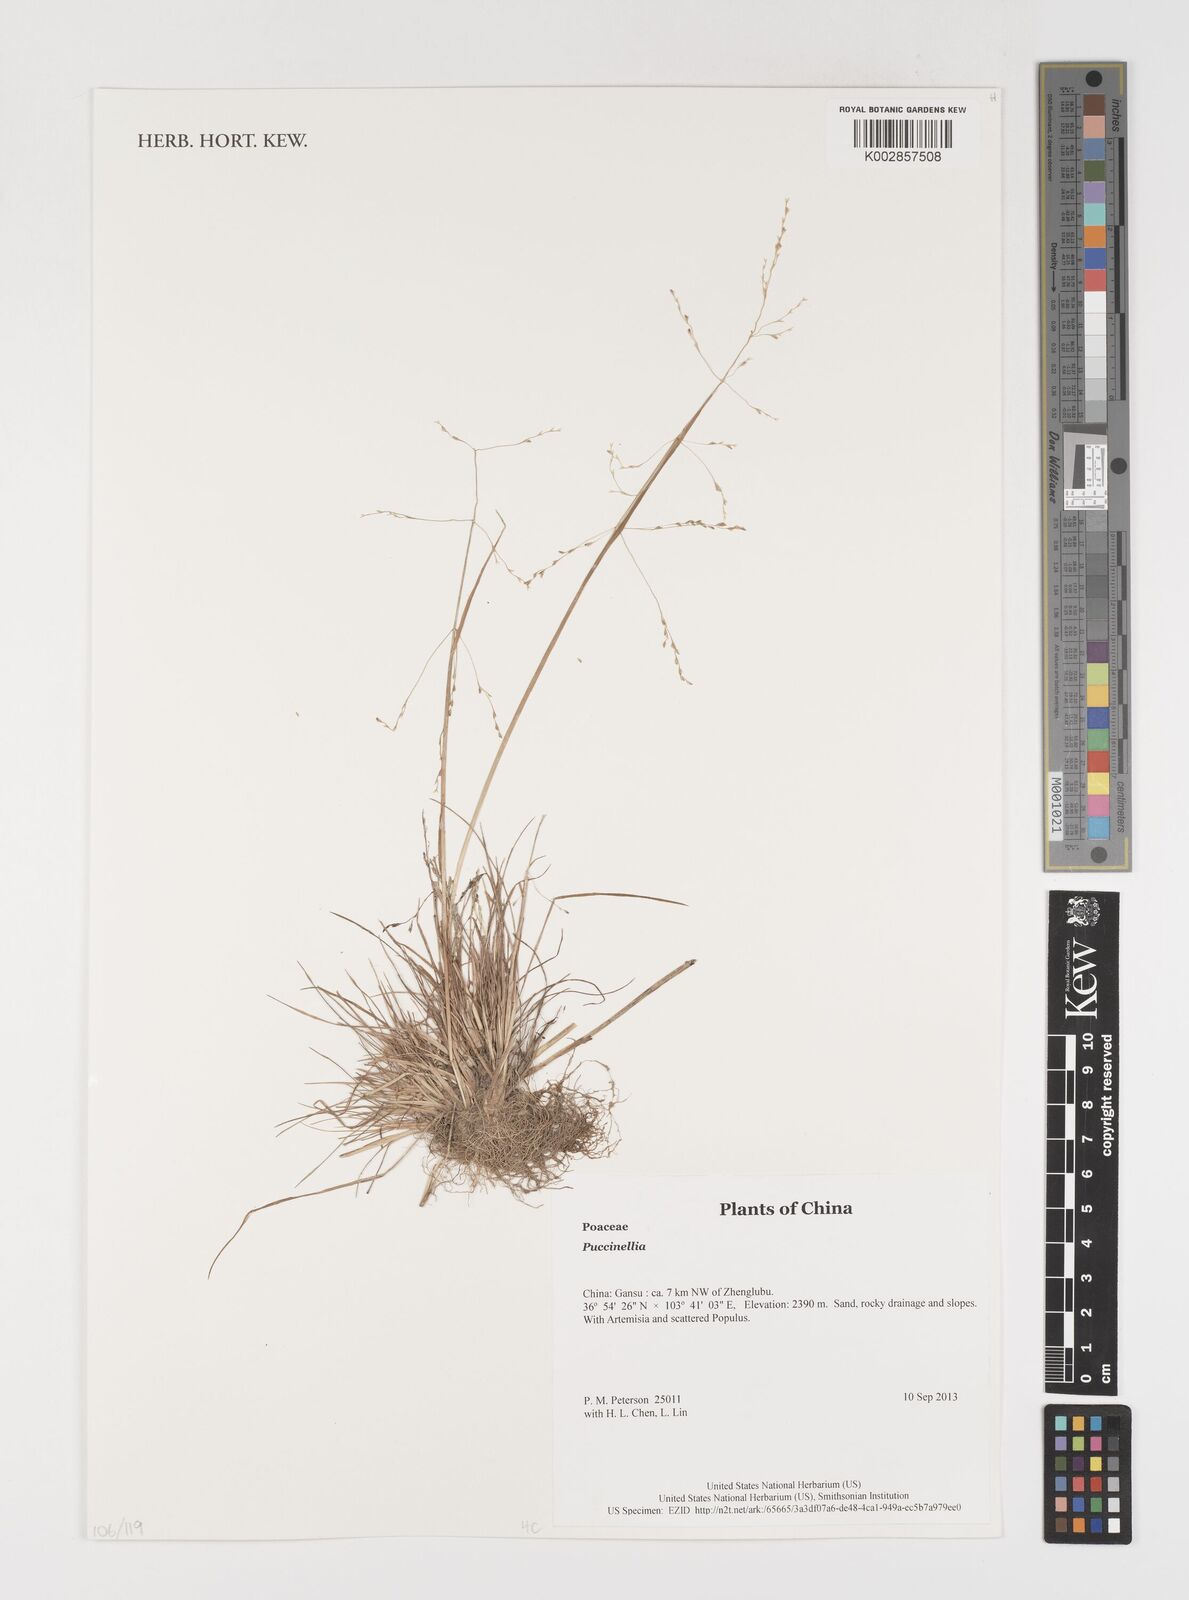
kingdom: Plantae
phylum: Tracheophyta
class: Liliopsida
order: Poales
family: Poaceae
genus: Puccinellia
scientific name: Puccinellia
